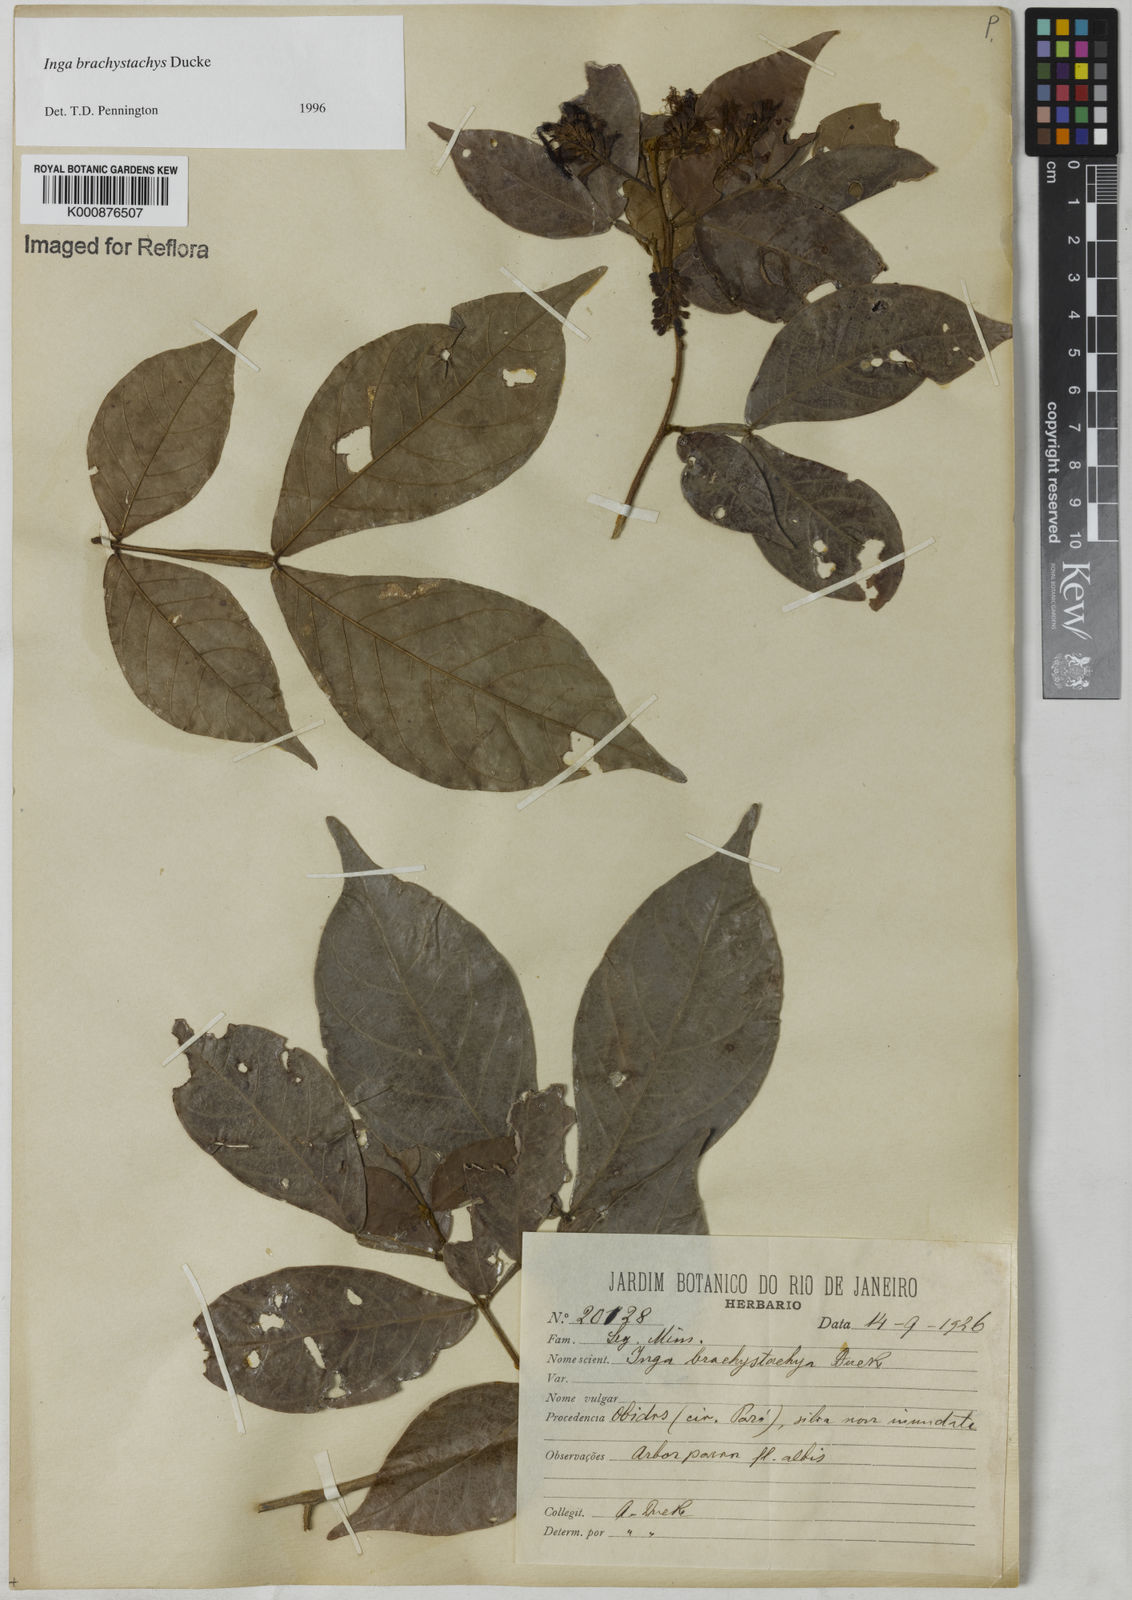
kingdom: Plantae
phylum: Tracheophyta
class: Magnoliopsida
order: Fabales
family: Fabaceae
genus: Inga
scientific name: Inga brachystachys
